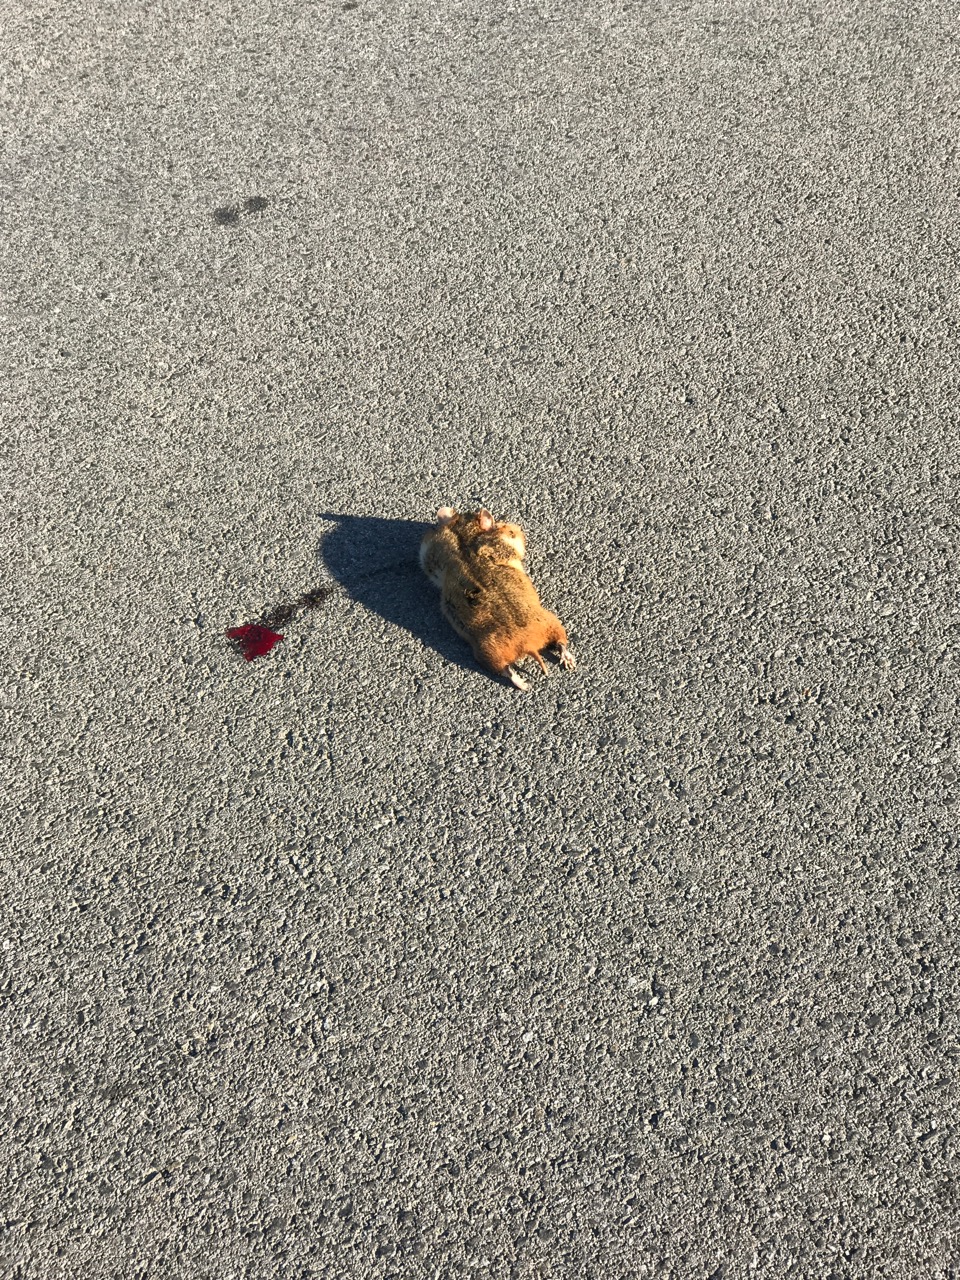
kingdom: Animalia
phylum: Chordata
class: Mammalia
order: Rodentia
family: Cricetidae
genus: Cricetus
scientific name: Cricetus cricetus
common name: Common hamster
